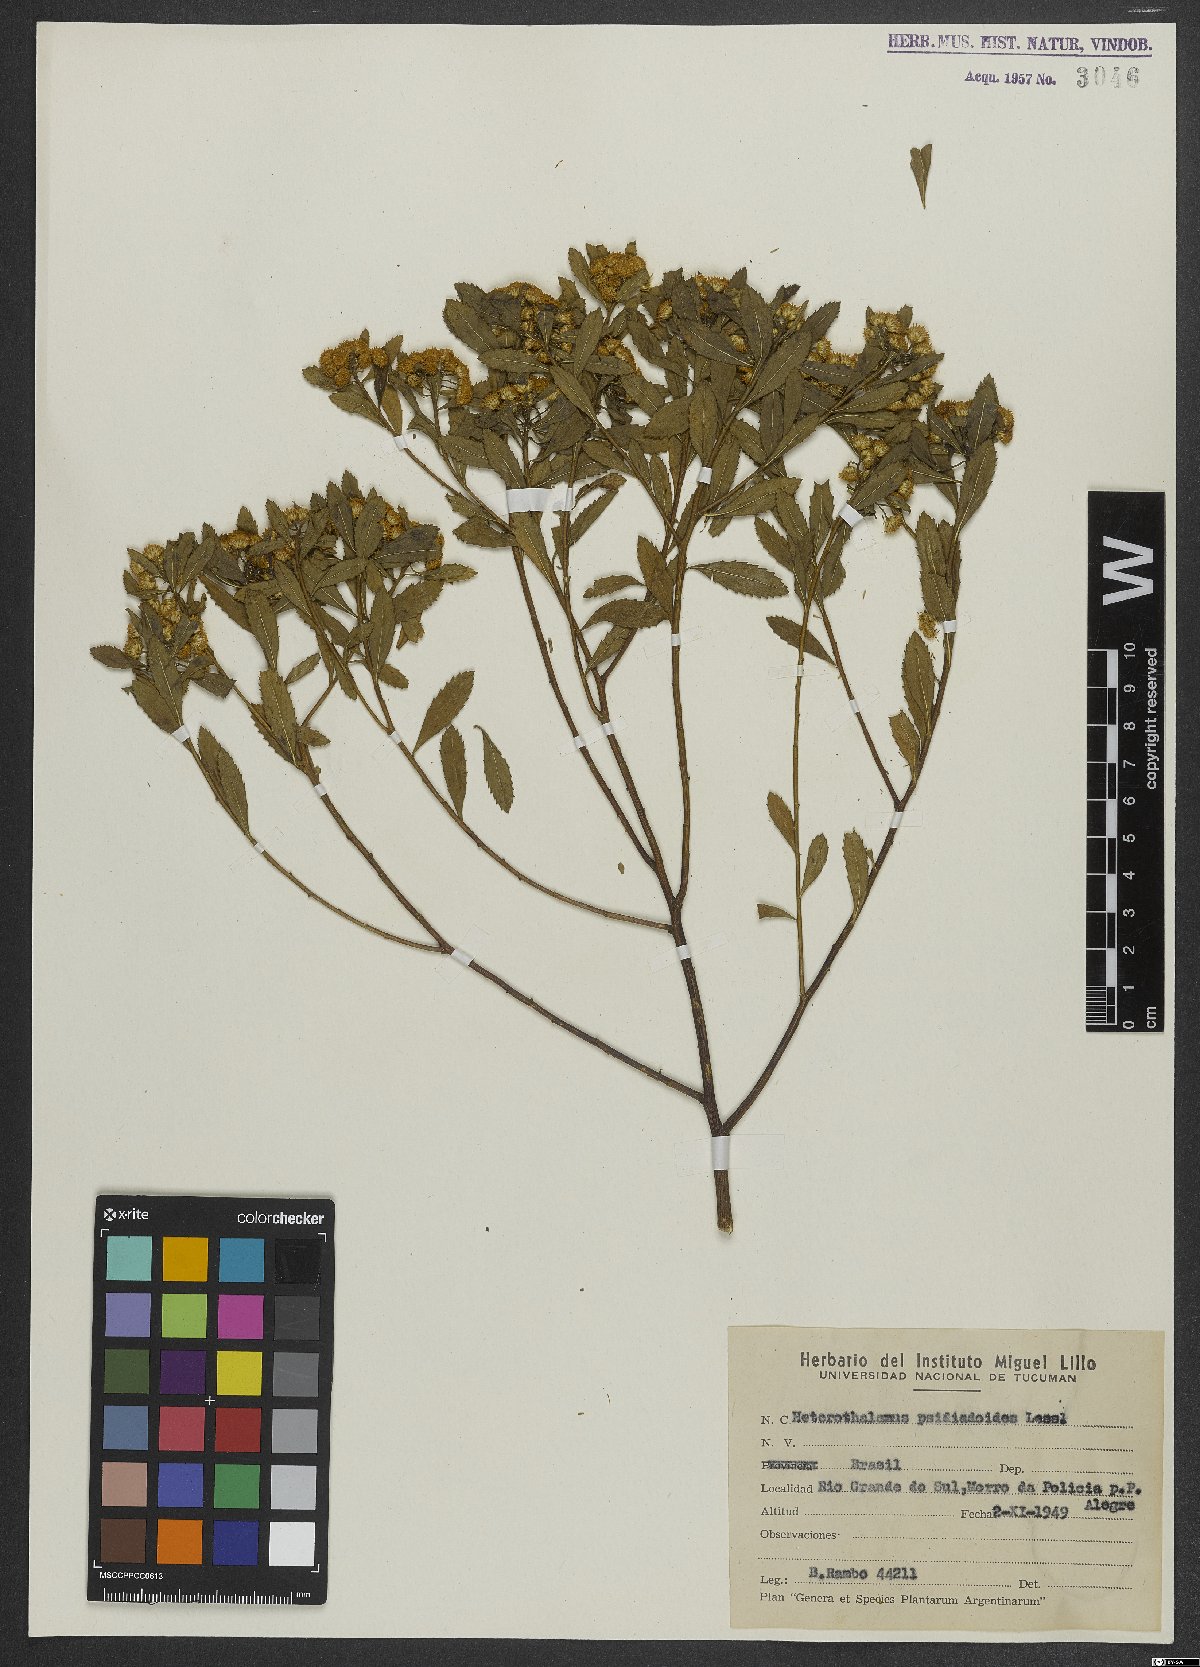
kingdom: Plantae
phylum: Tracheophyta
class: Magnoliopsida
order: Asterales
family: Asteraceae
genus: Baccharis
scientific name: Baccharis psiadioides
